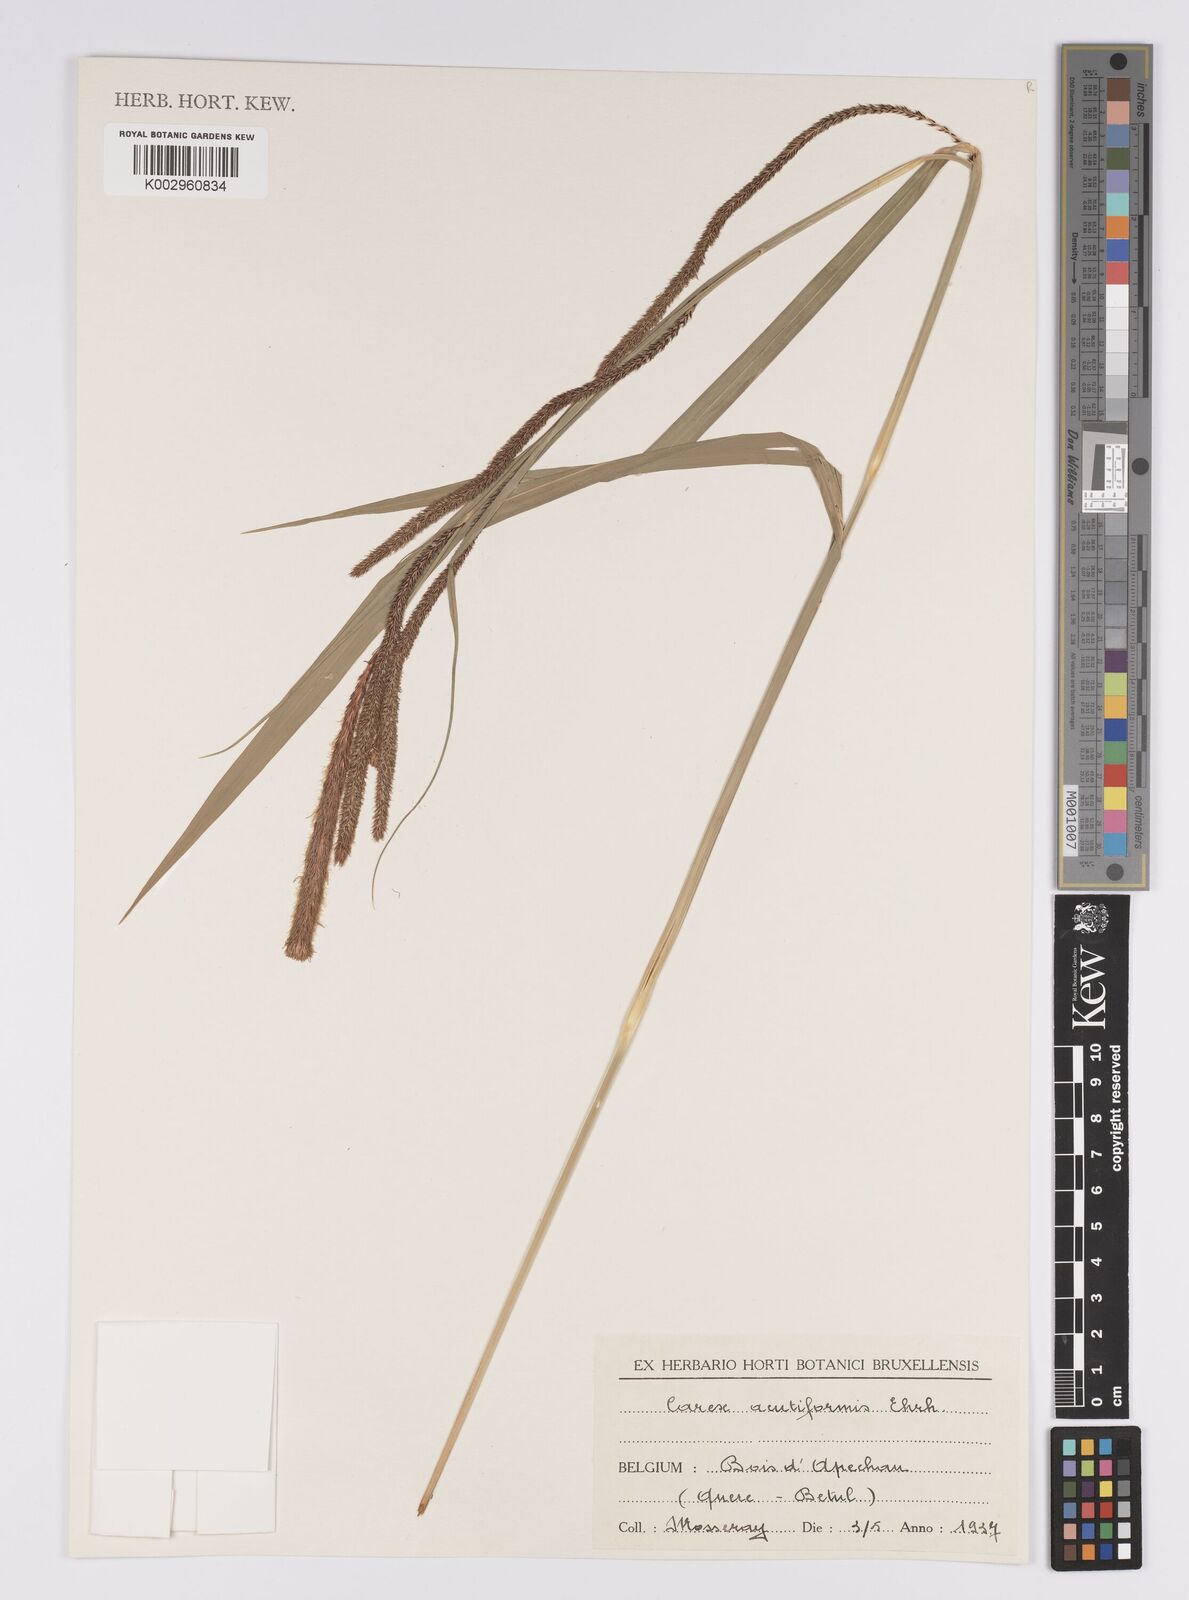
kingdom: Plantae
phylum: Tracheophyta
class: Liliopsida
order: Poales
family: Cyperaceae
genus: Carex
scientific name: Carex acutiformis
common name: Lesser pond-sedge
